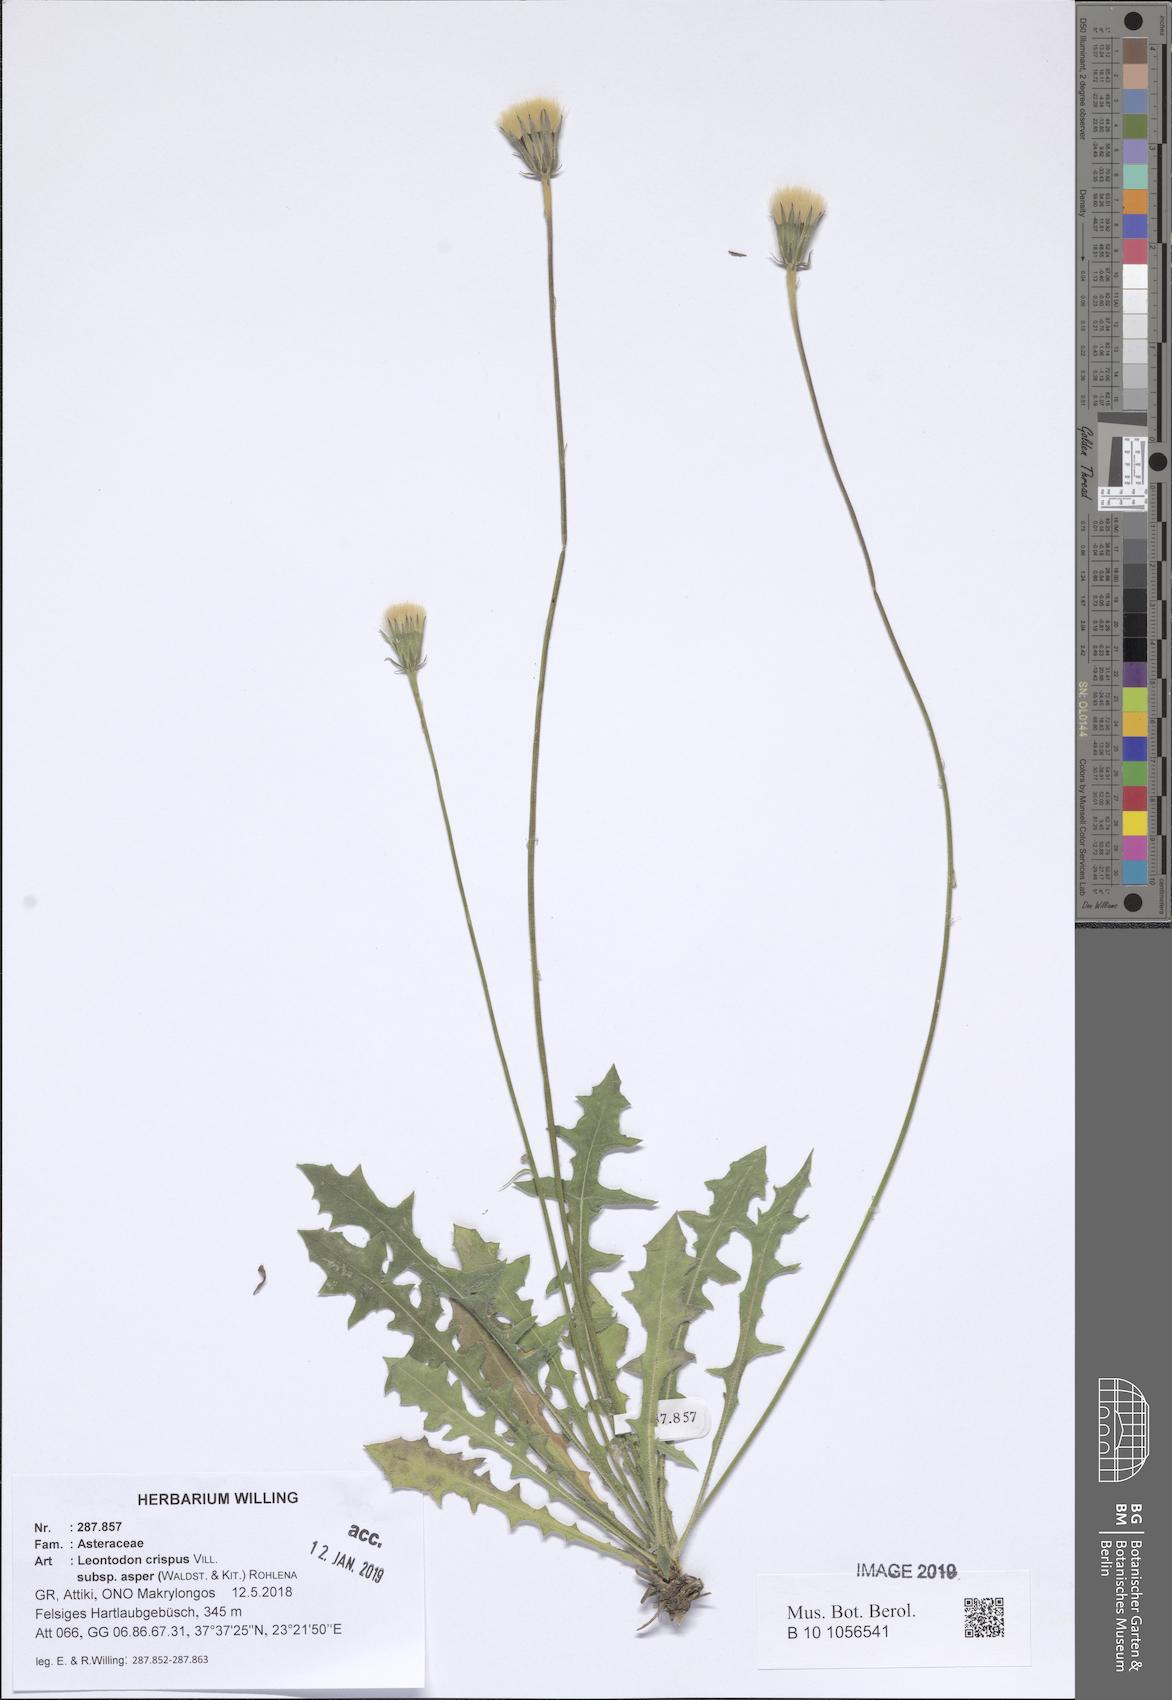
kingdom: Plantae
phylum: Tracheophyta
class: Magnoliopsida
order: Asterales
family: Asteraceae
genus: Leontodon
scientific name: Leontodon biscutellifolius
